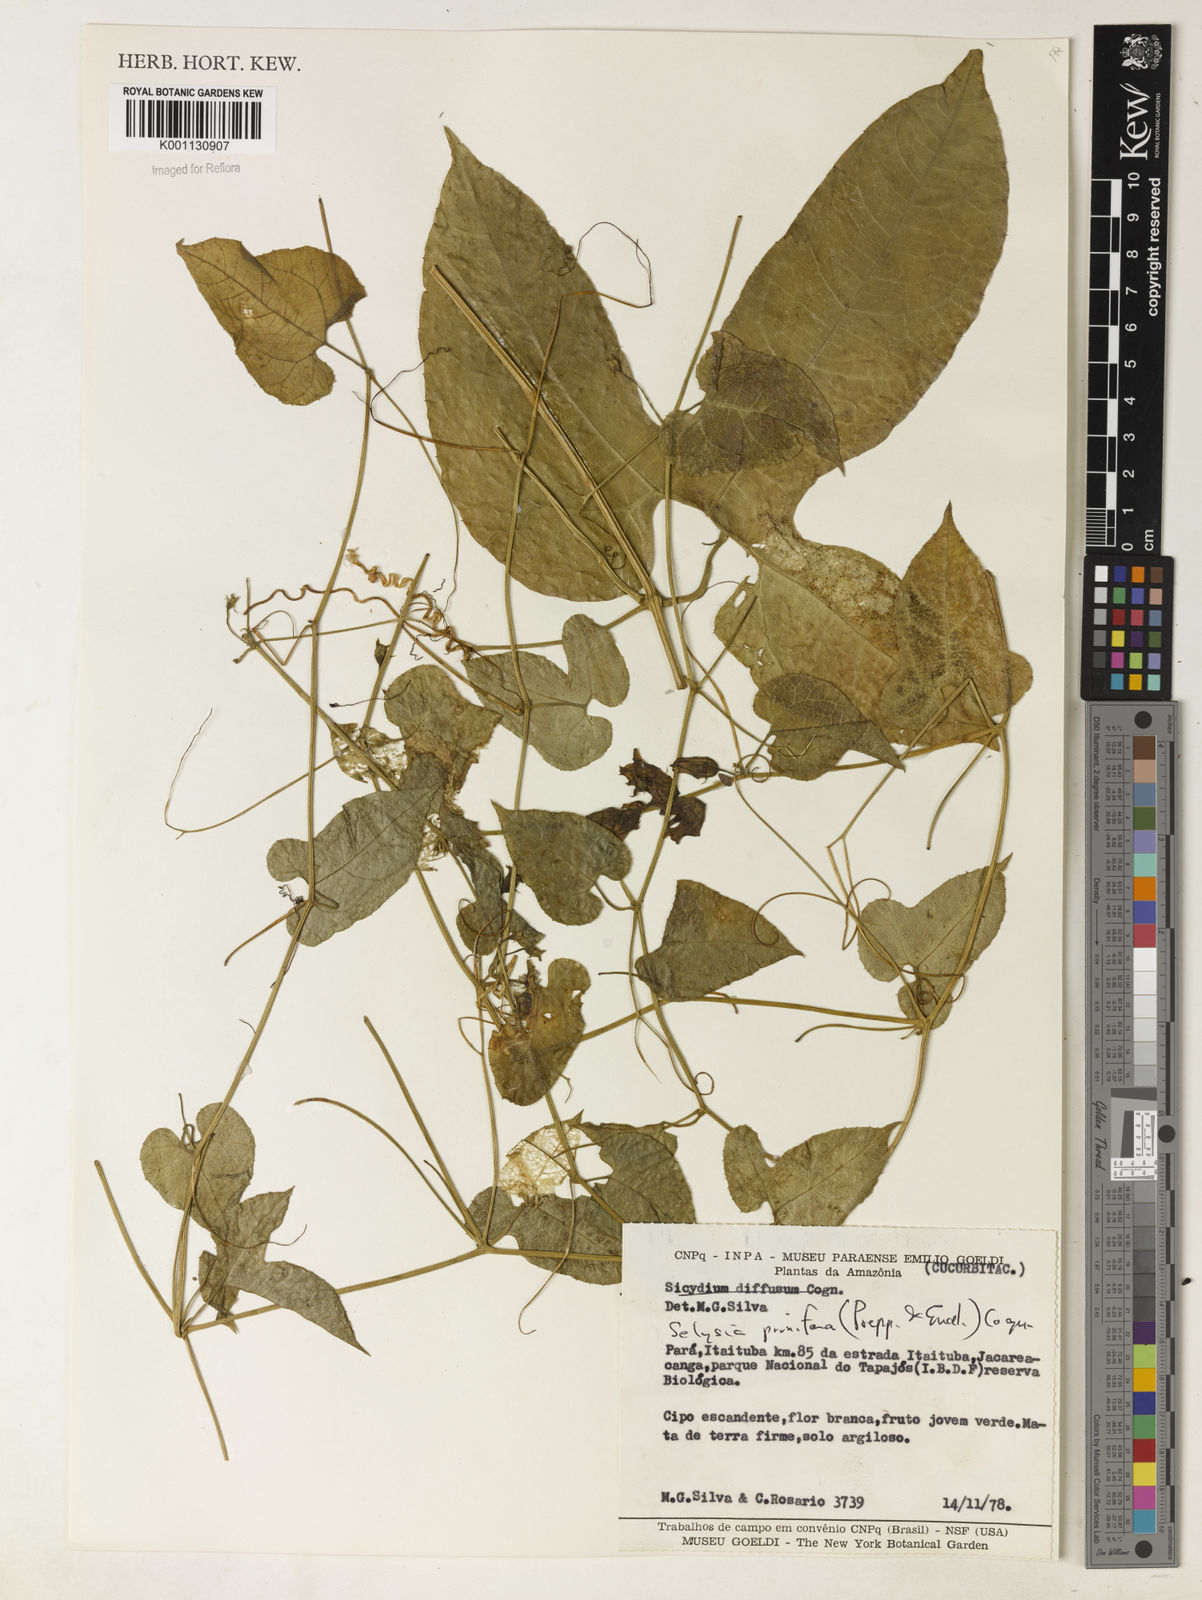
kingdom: Plantae
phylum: Tracheophyta
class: Magnoliopsida
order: Cucurbitales
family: Cucurbitaceae
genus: Cayaponia
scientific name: Cayaponia prunifera
